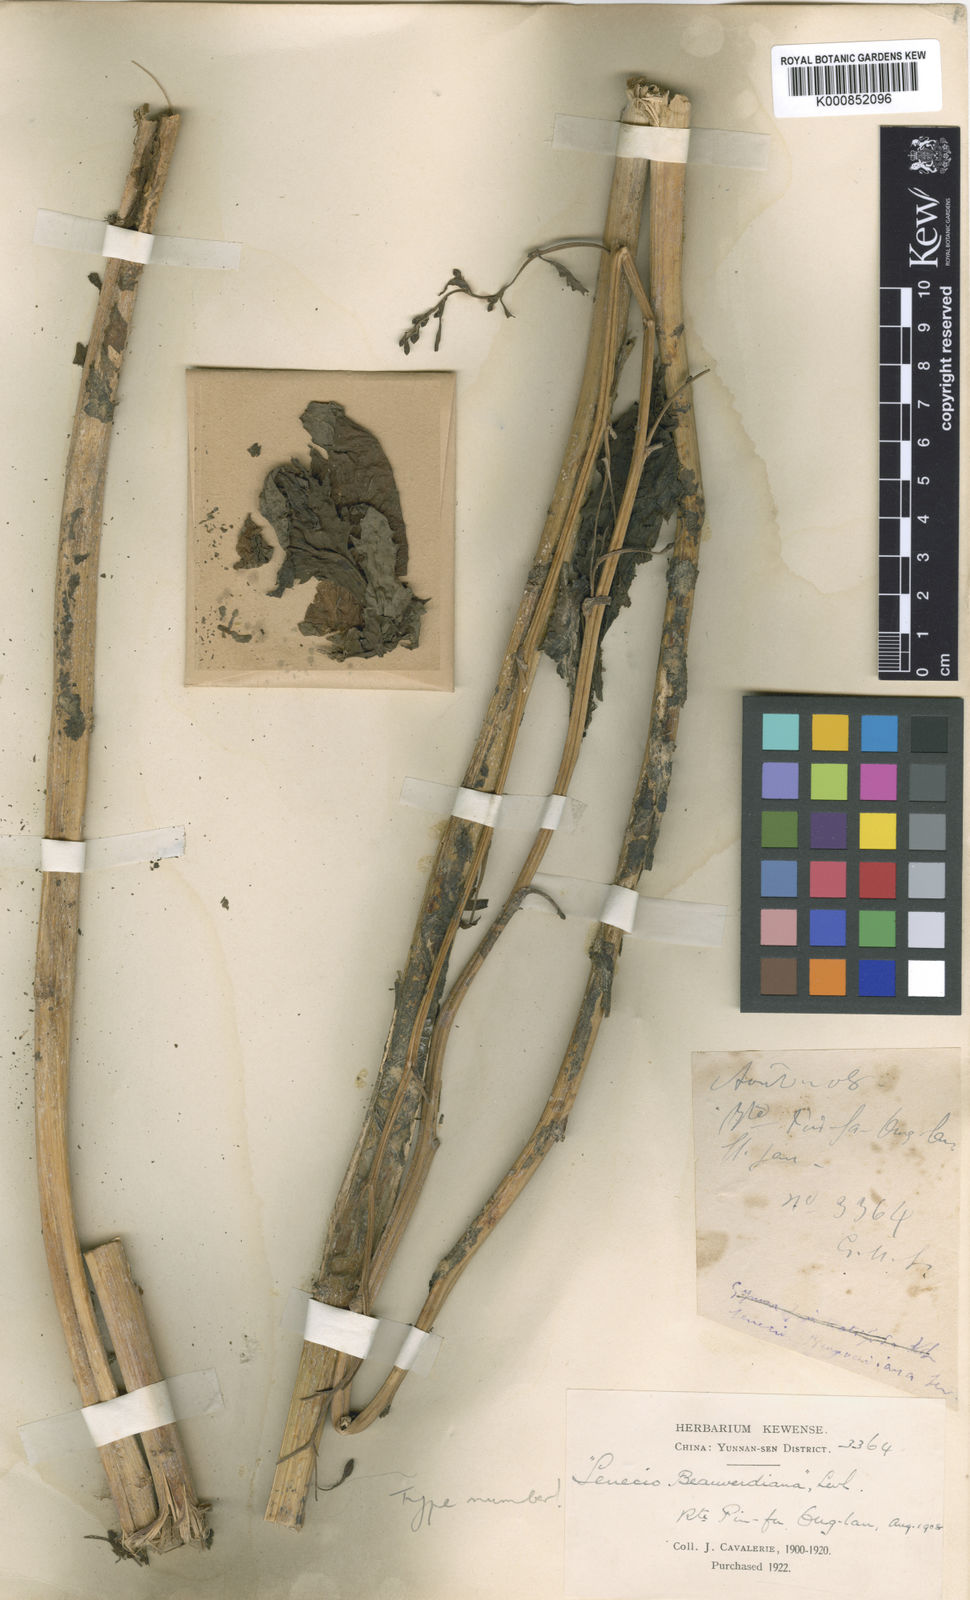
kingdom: Plantae
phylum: Tracheophyta
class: Magnoliopsida
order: Asterales
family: Asteraceae
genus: Senecio
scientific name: Senecio
